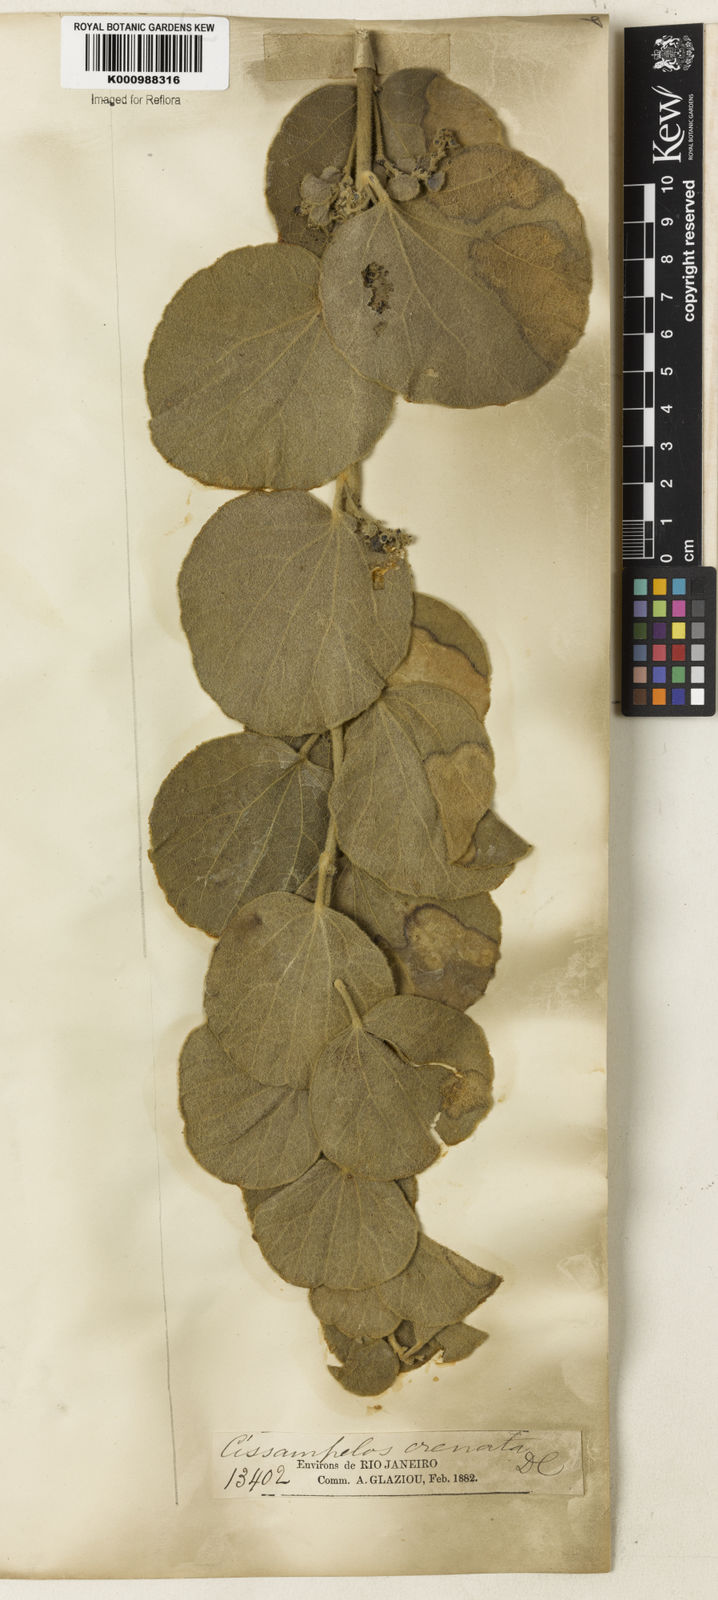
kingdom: Plantae
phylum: Tracheophyta
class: Magnoliopsida
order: Ranunculales
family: Menispermaceae
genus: Cissampelos
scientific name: Cissampelos ovalifolia
